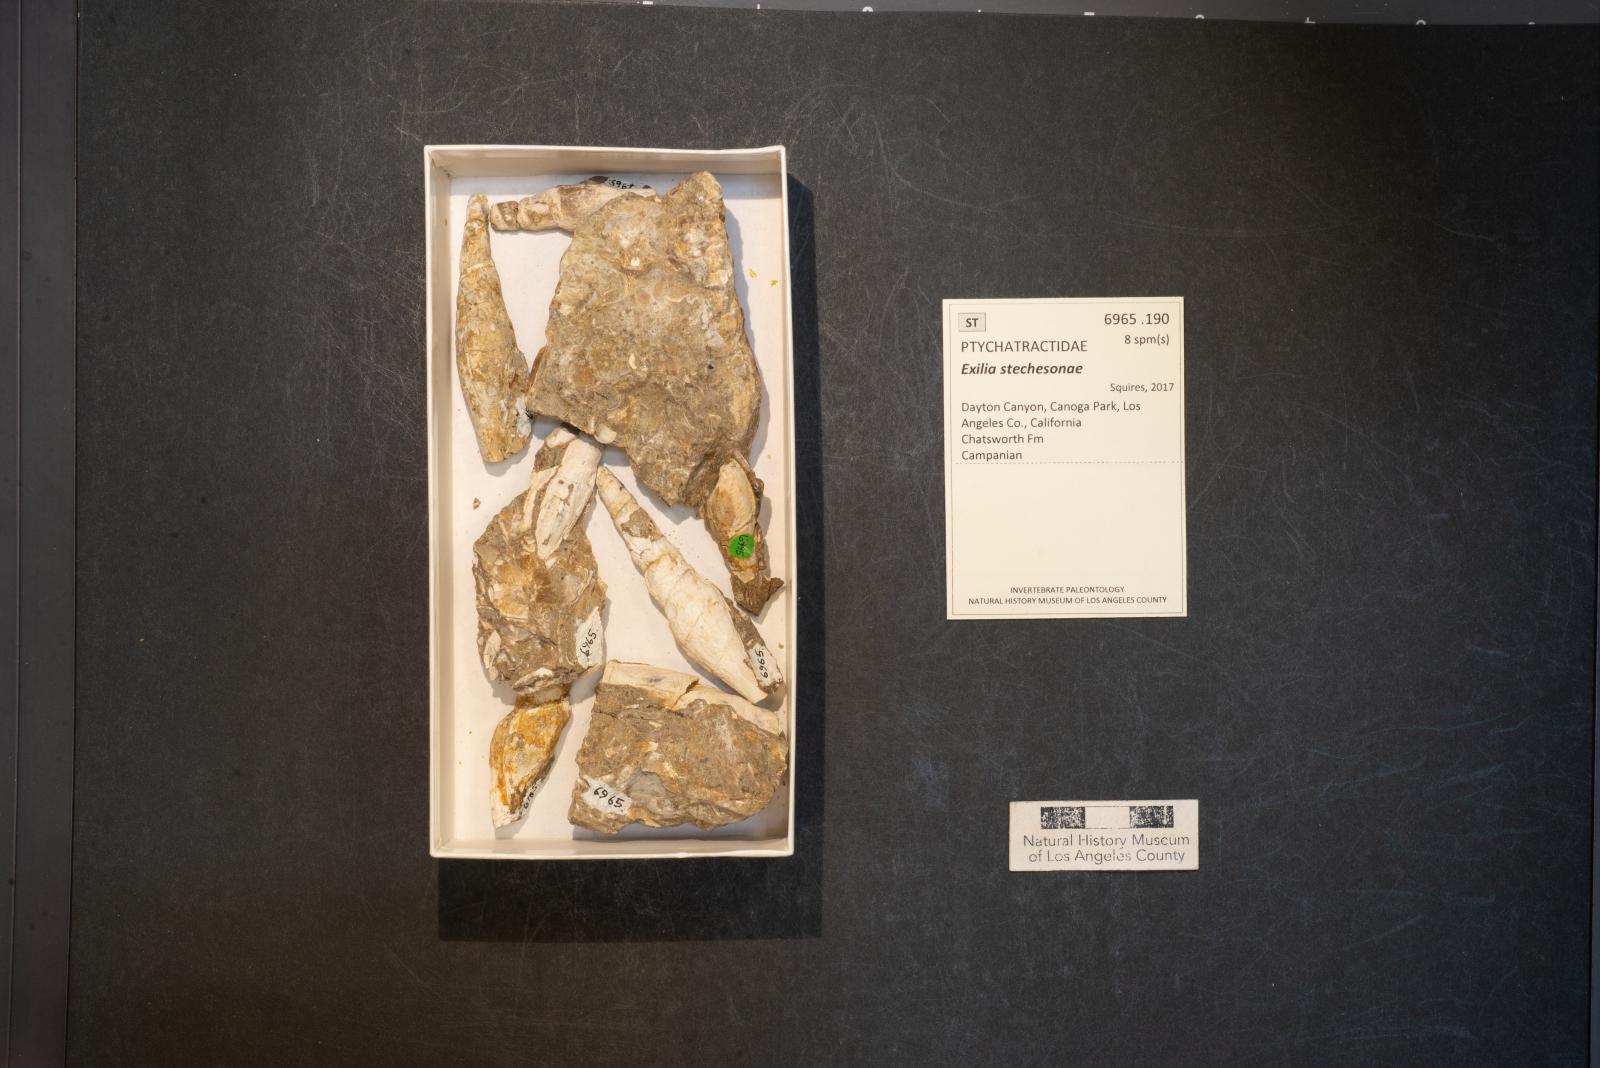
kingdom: Animalia
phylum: Mollusca
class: Gastropoda
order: Neogastropoda
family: Ptychatractidae
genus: Exilia
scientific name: Exilia stechesonae
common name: Snail
